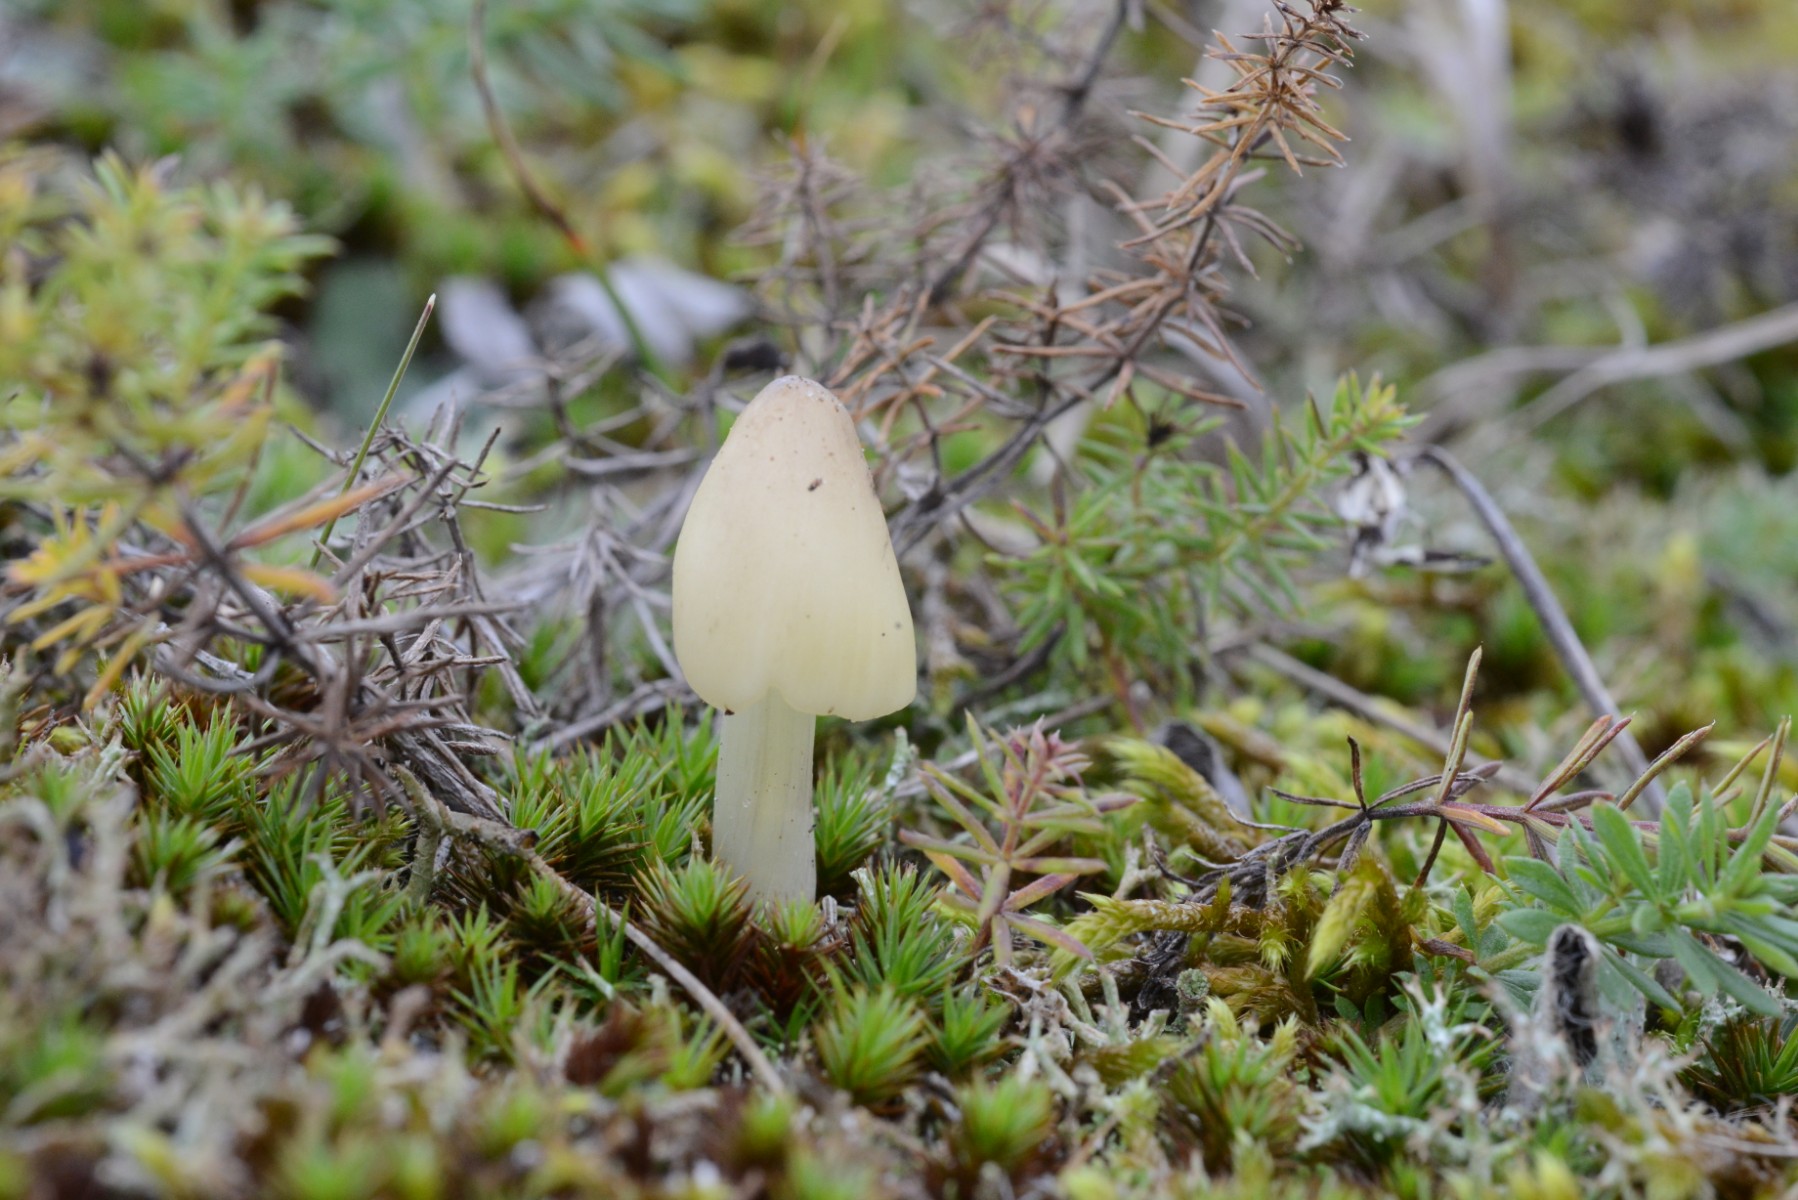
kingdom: Fungi
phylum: Basidiomycota
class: Agaricomycetes
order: Agaricales
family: Hygrophoraceae
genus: Hygrocybe
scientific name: Hygrocybe conica
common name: oliven-vokshat
